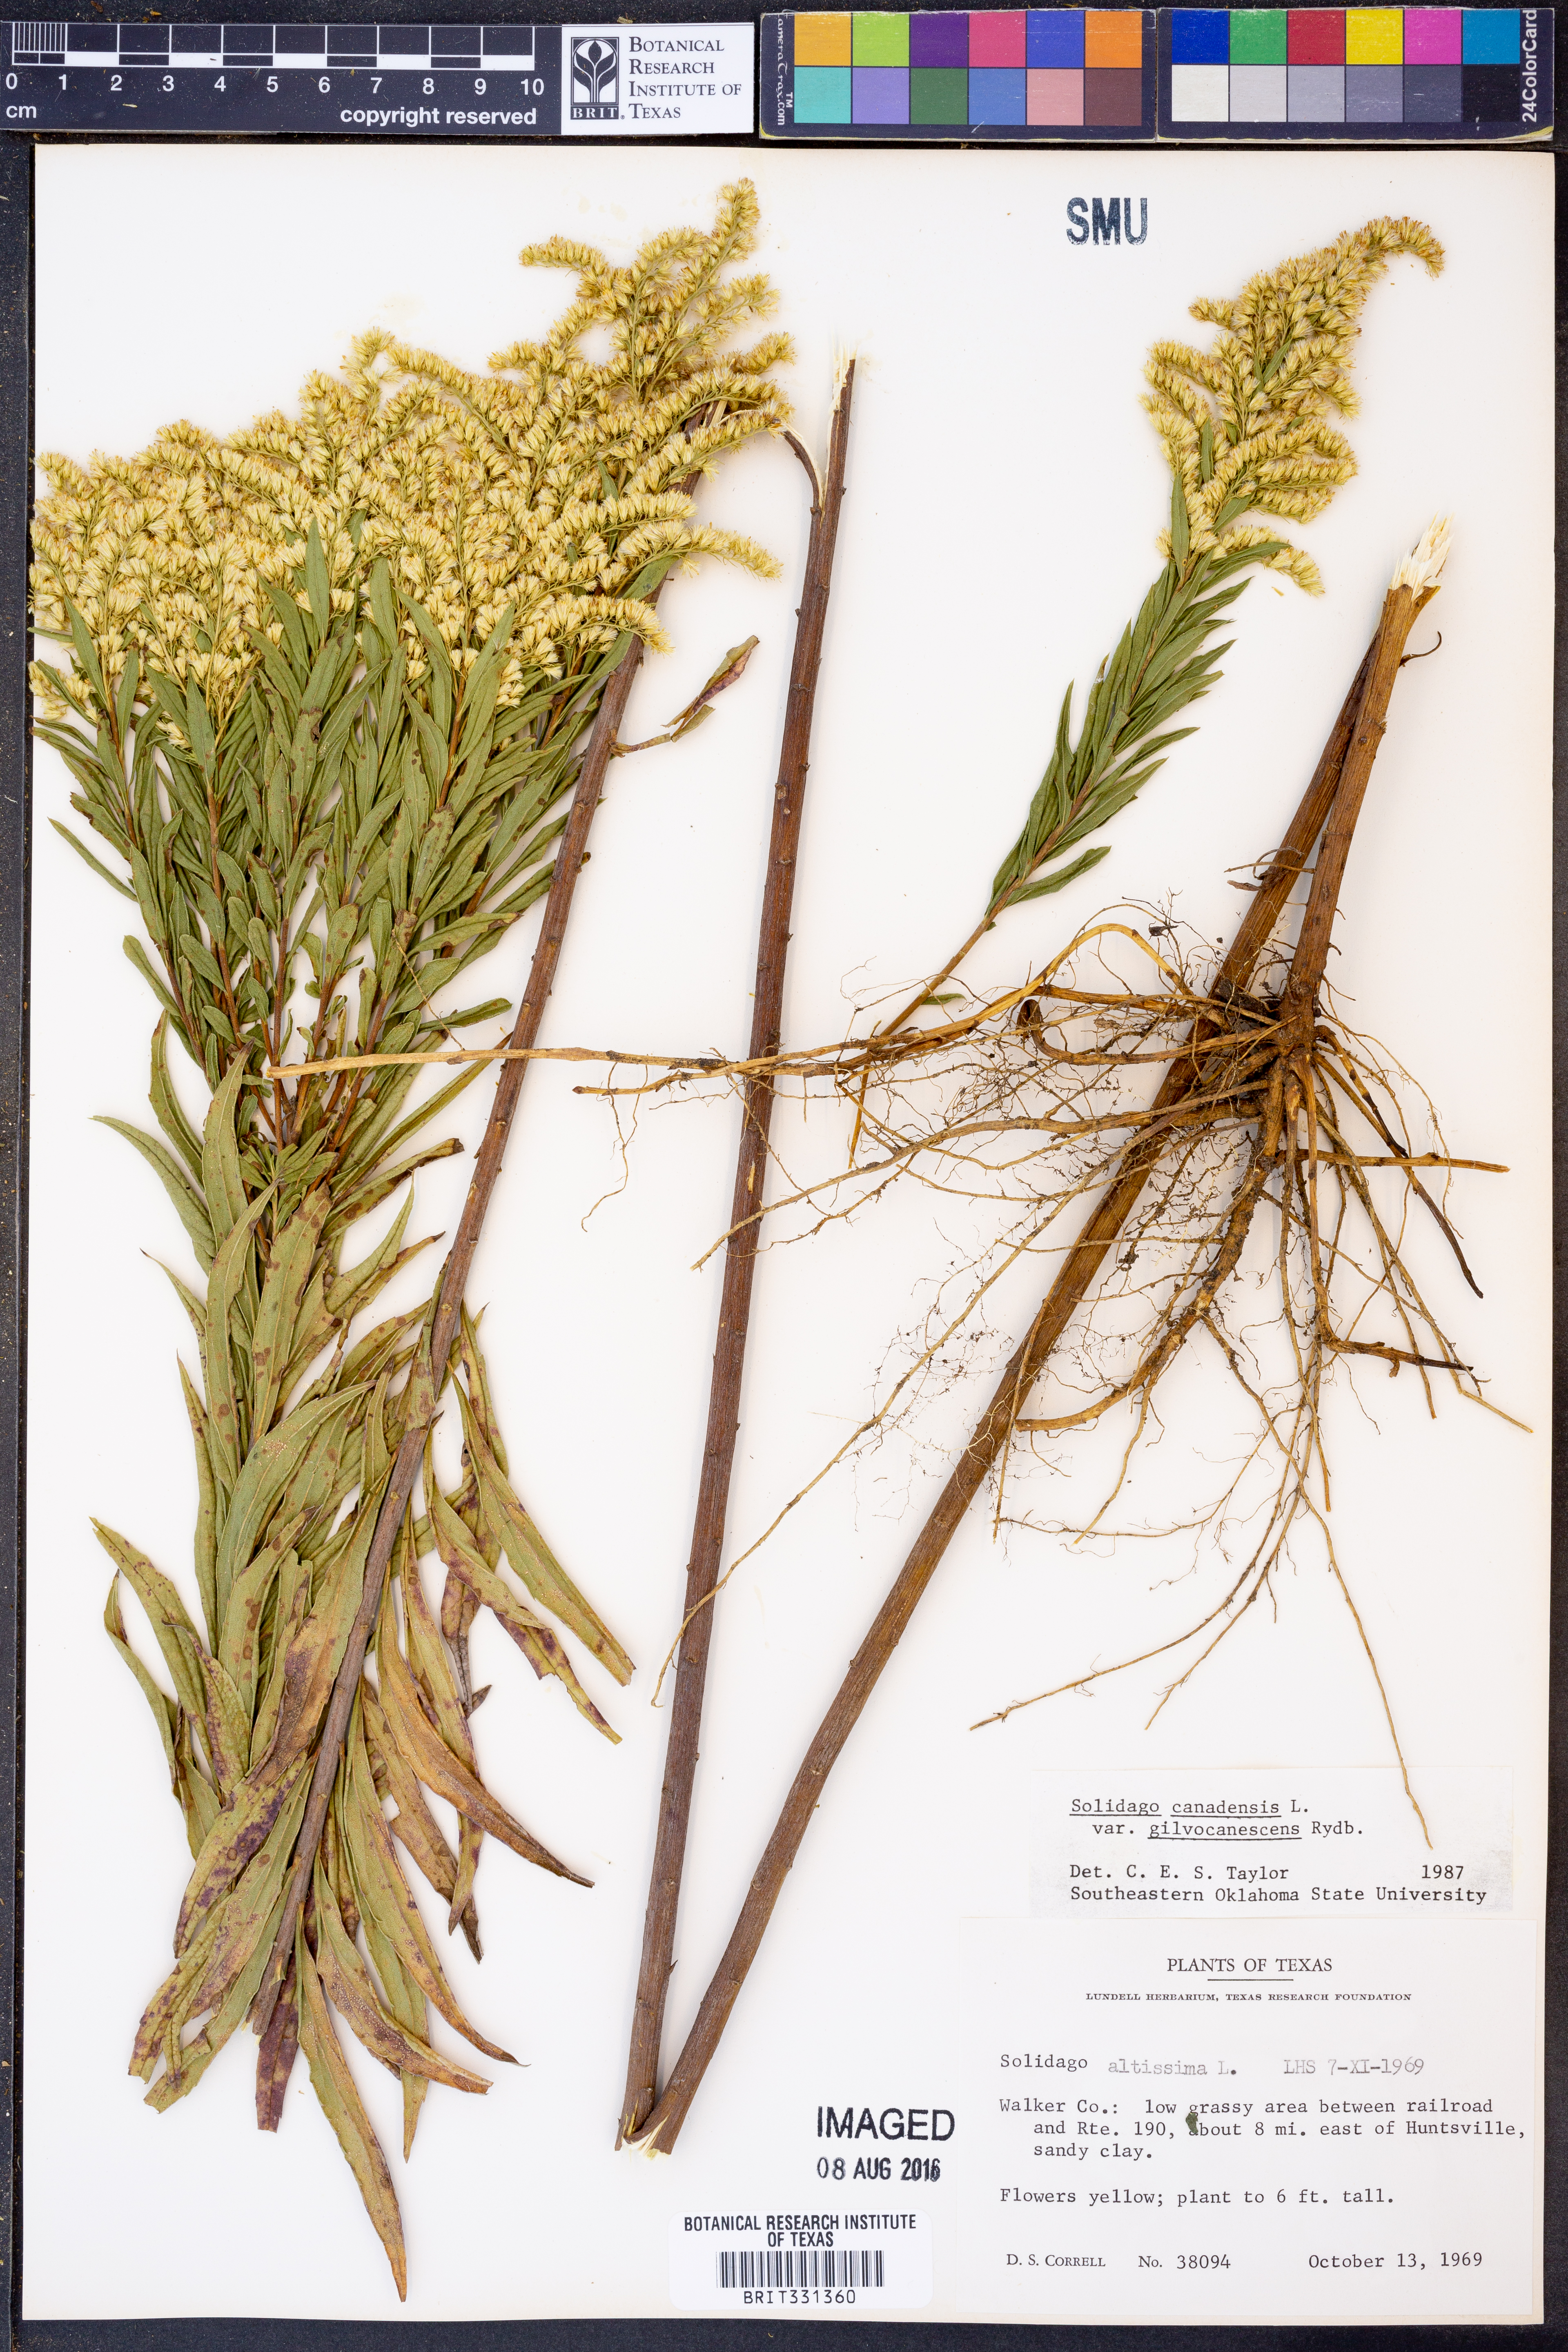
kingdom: Plantae
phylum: Tracheophyta
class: Magnoliopsida
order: Asterales
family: Asteraceae
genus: Solidago
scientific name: Solidago altissima
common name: Late goldenrod
